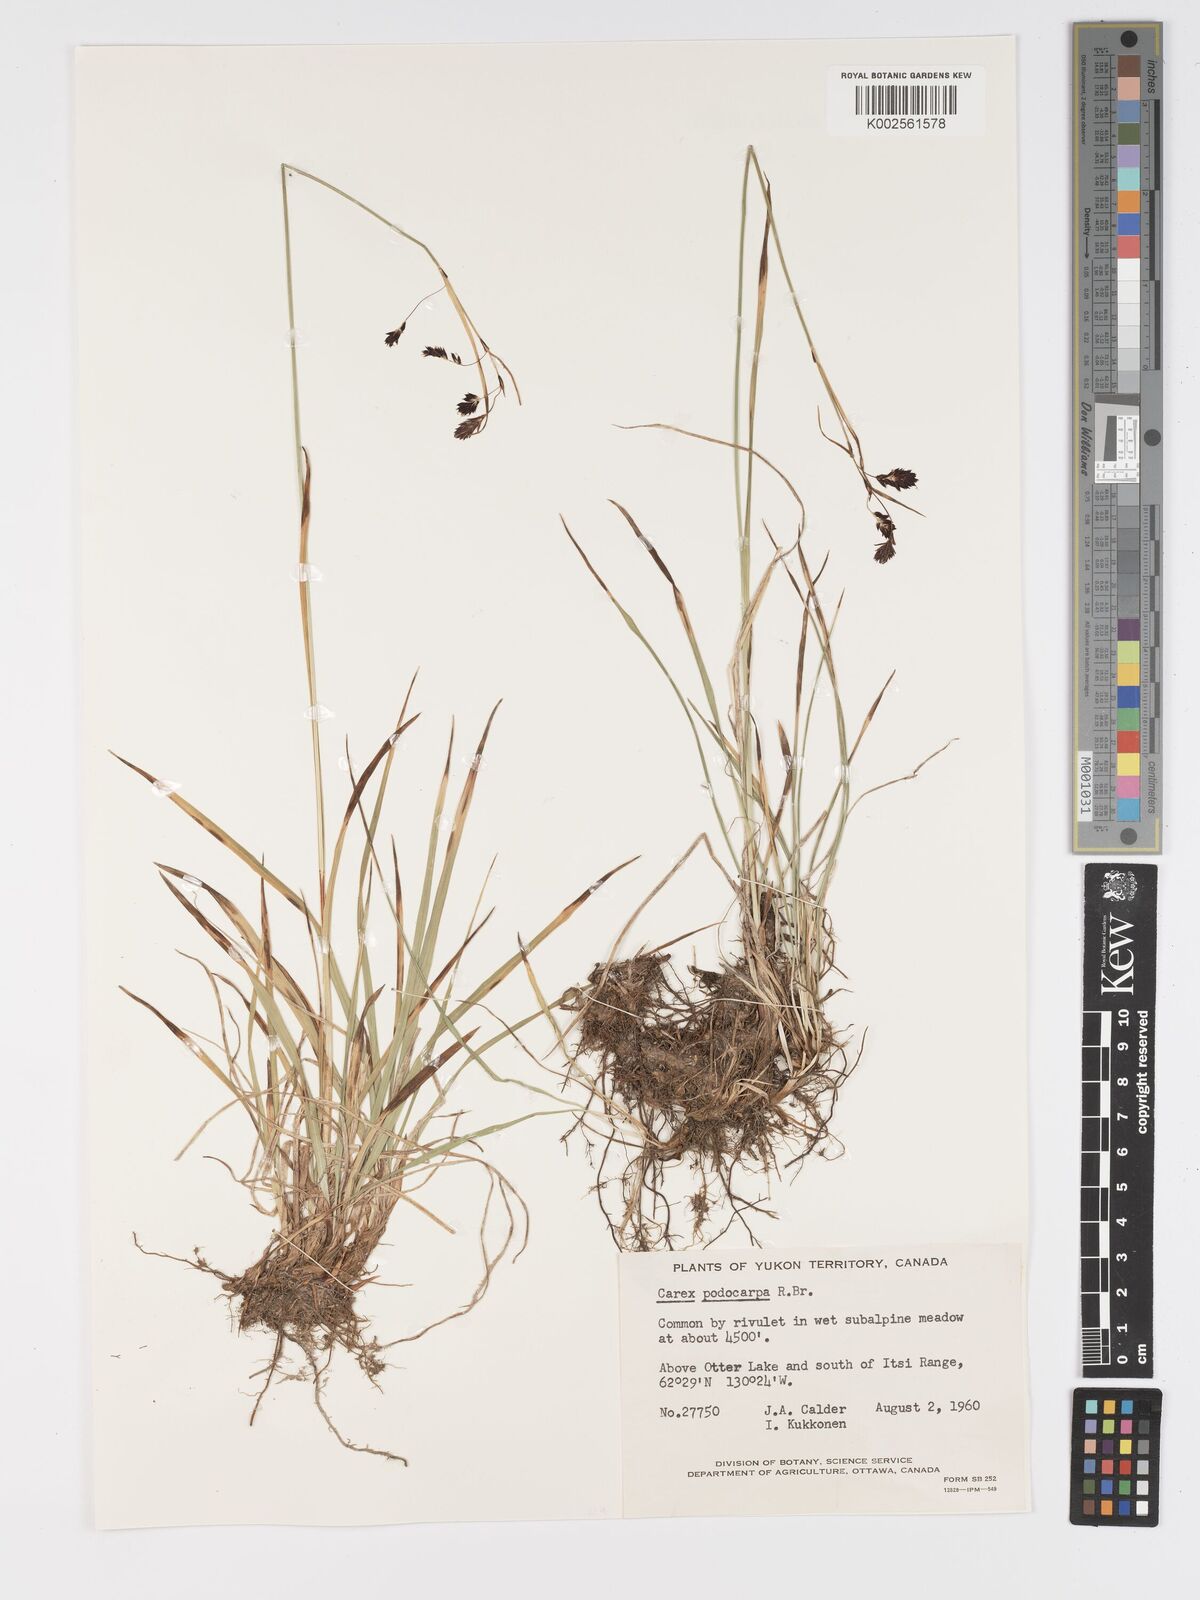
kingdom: Plantae
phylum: Tracheophyta
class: Liliopsida
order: Poales
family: Cyperaceae
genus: Carex
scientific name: Carex podocarpa
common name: Alpine sedge
